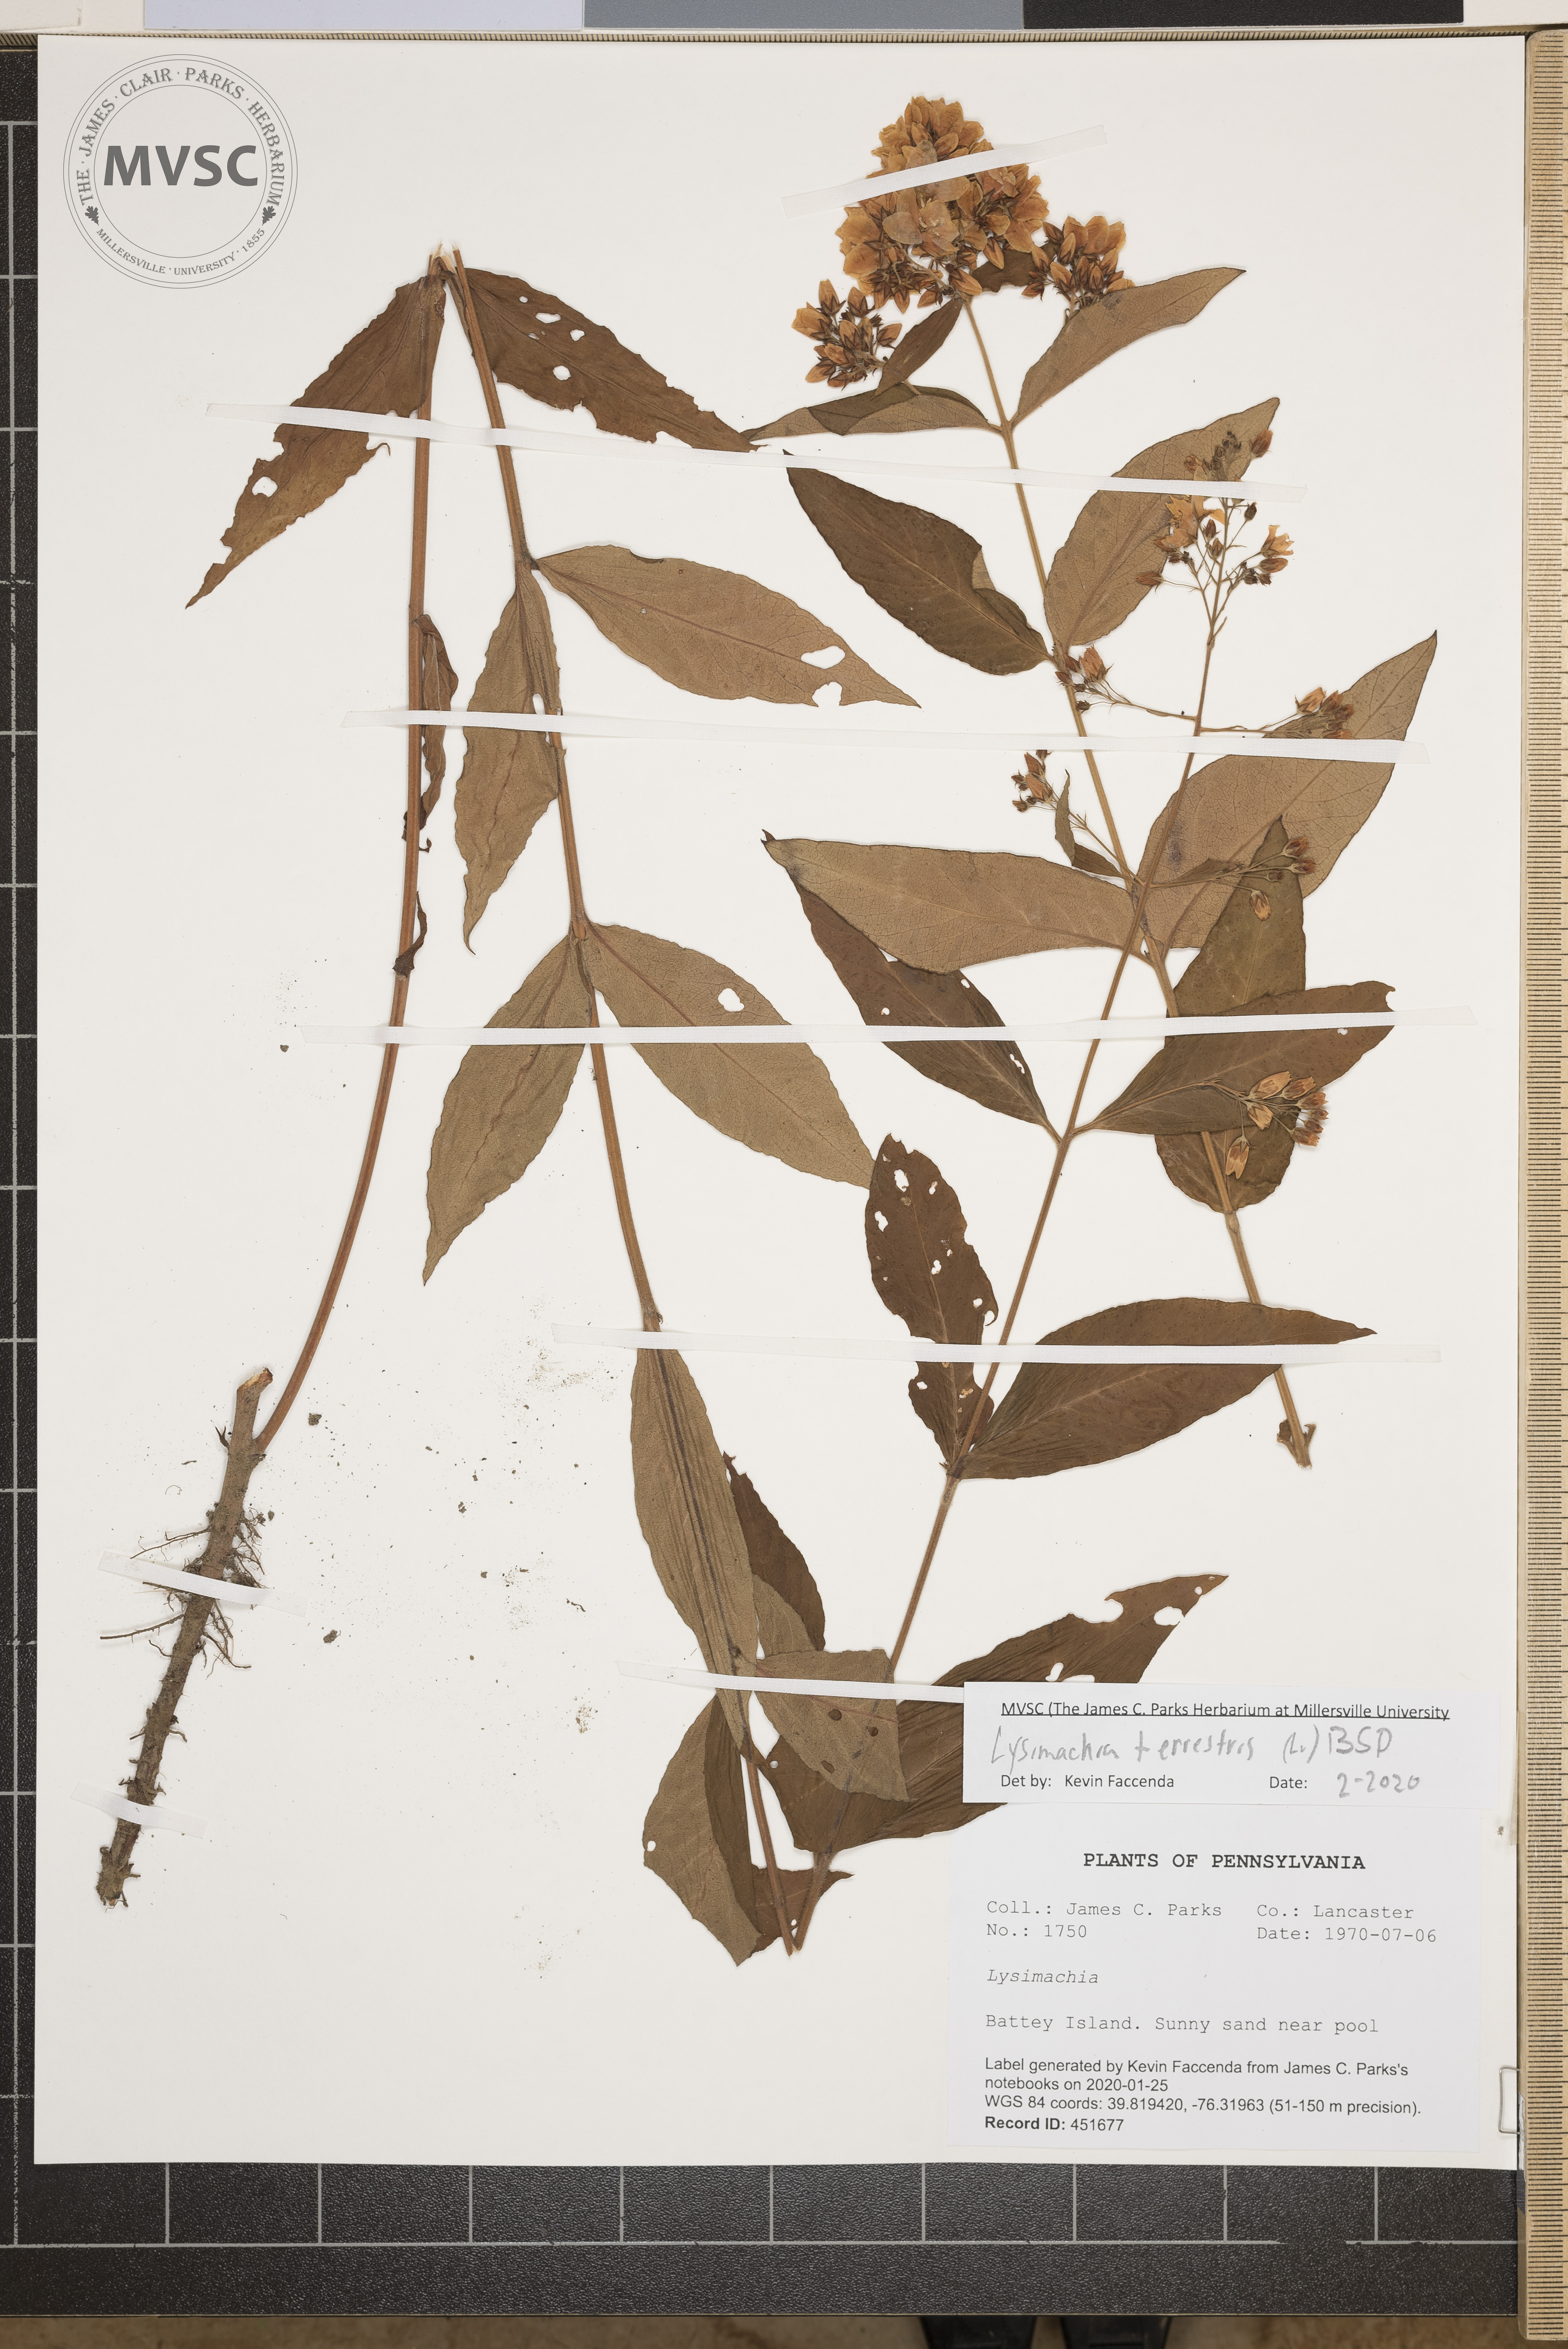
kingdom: Plantae
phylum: Tracheophyta
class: Magnoliopsida
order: Ericales
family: Primulaceae
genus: Lysimachia
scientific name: Lysimachia terrestris
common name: Lake loosestrife
